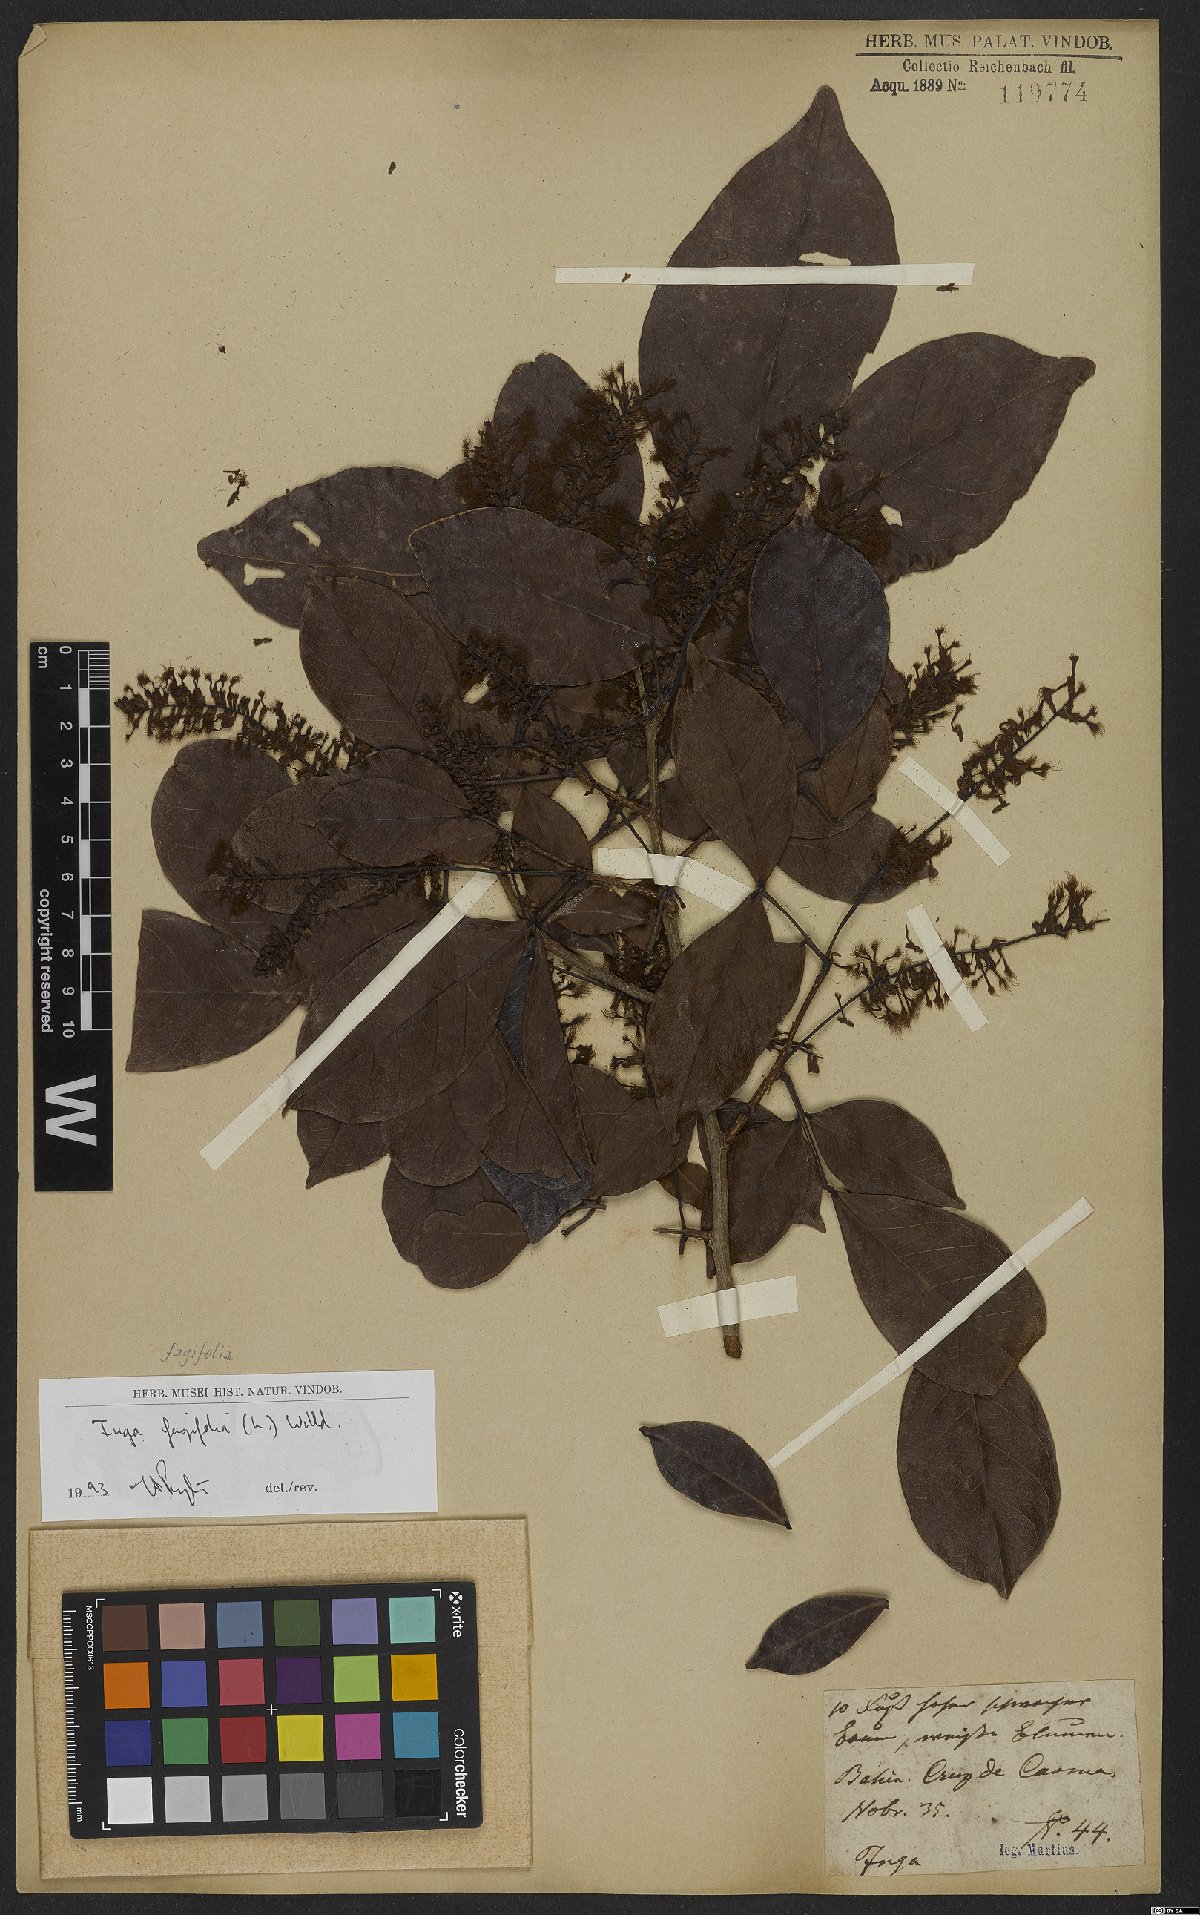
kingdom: Plantae
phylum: Tracheophyta
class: Magnoliopsida
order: Fabales
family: Fabaceae
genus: Inga
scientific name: Inga laurina
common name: Red wood
